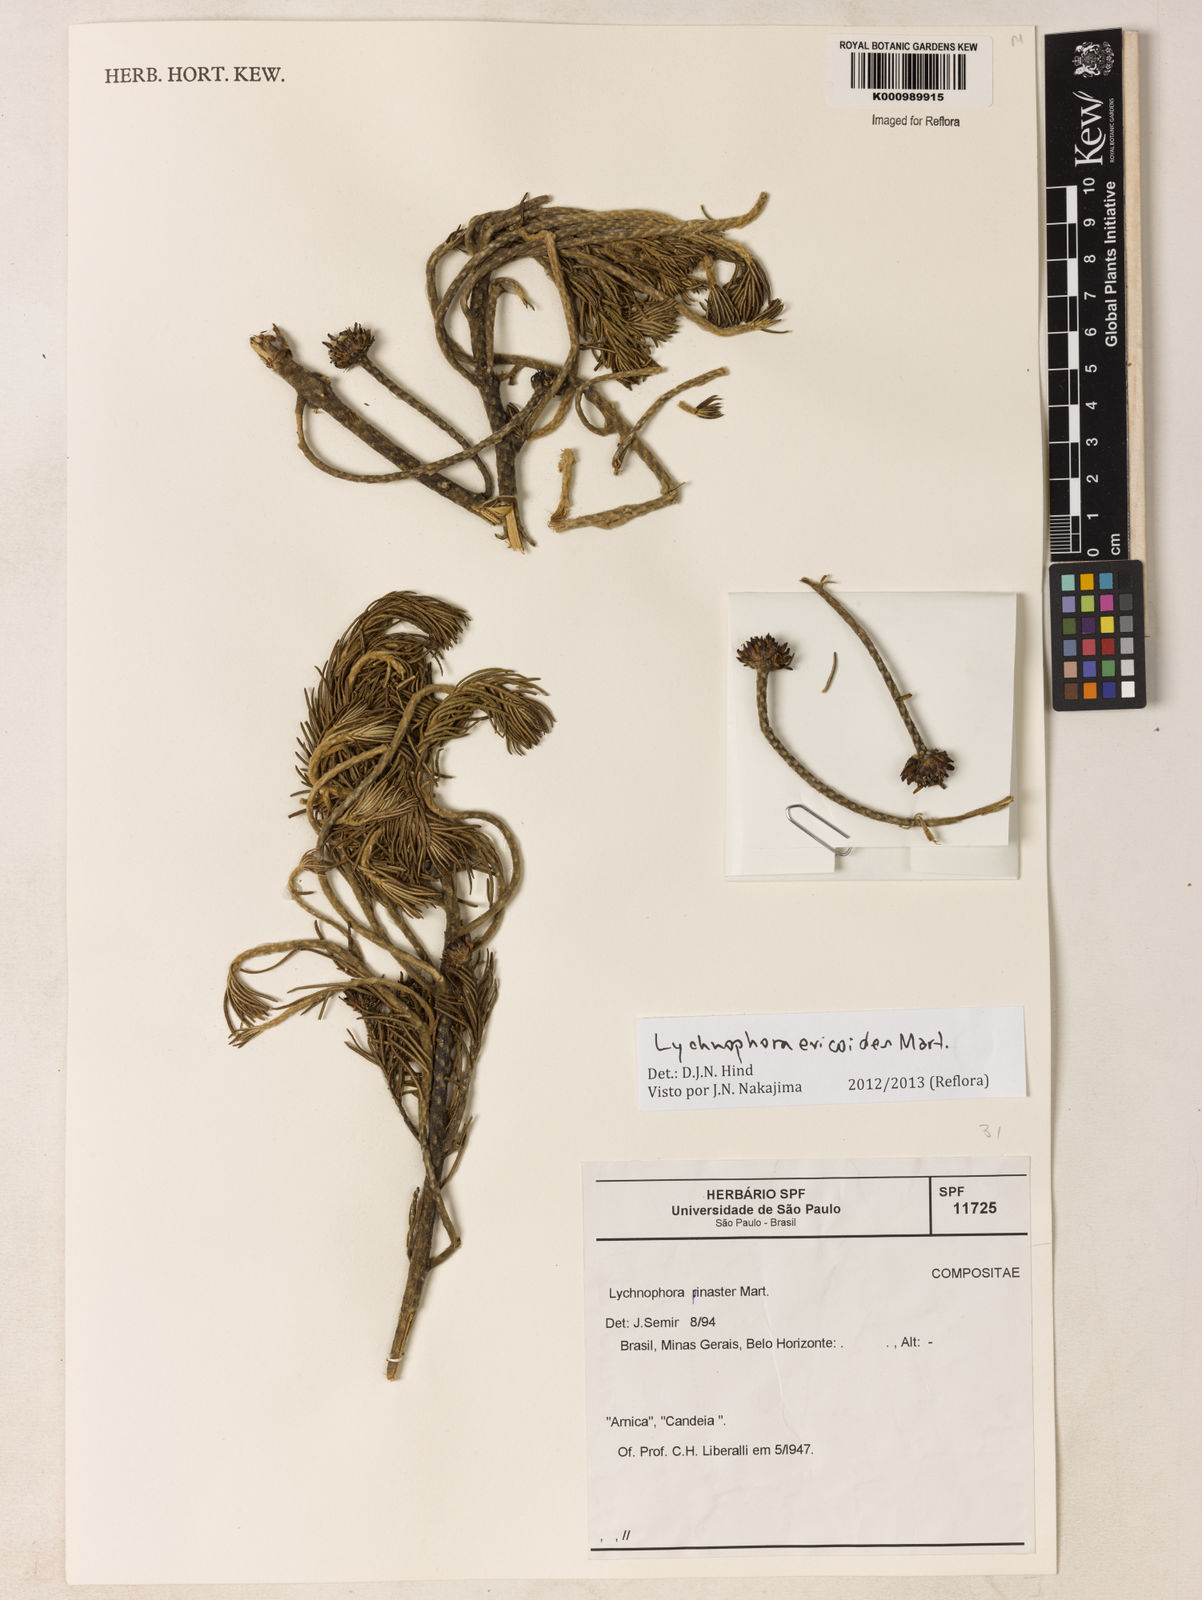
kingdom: Plantae
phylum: Tracheophyta
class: Magnoliopsida
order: Asterales
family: Asteraceae
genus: Lychnophora
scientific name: Lychnophora ericoides
